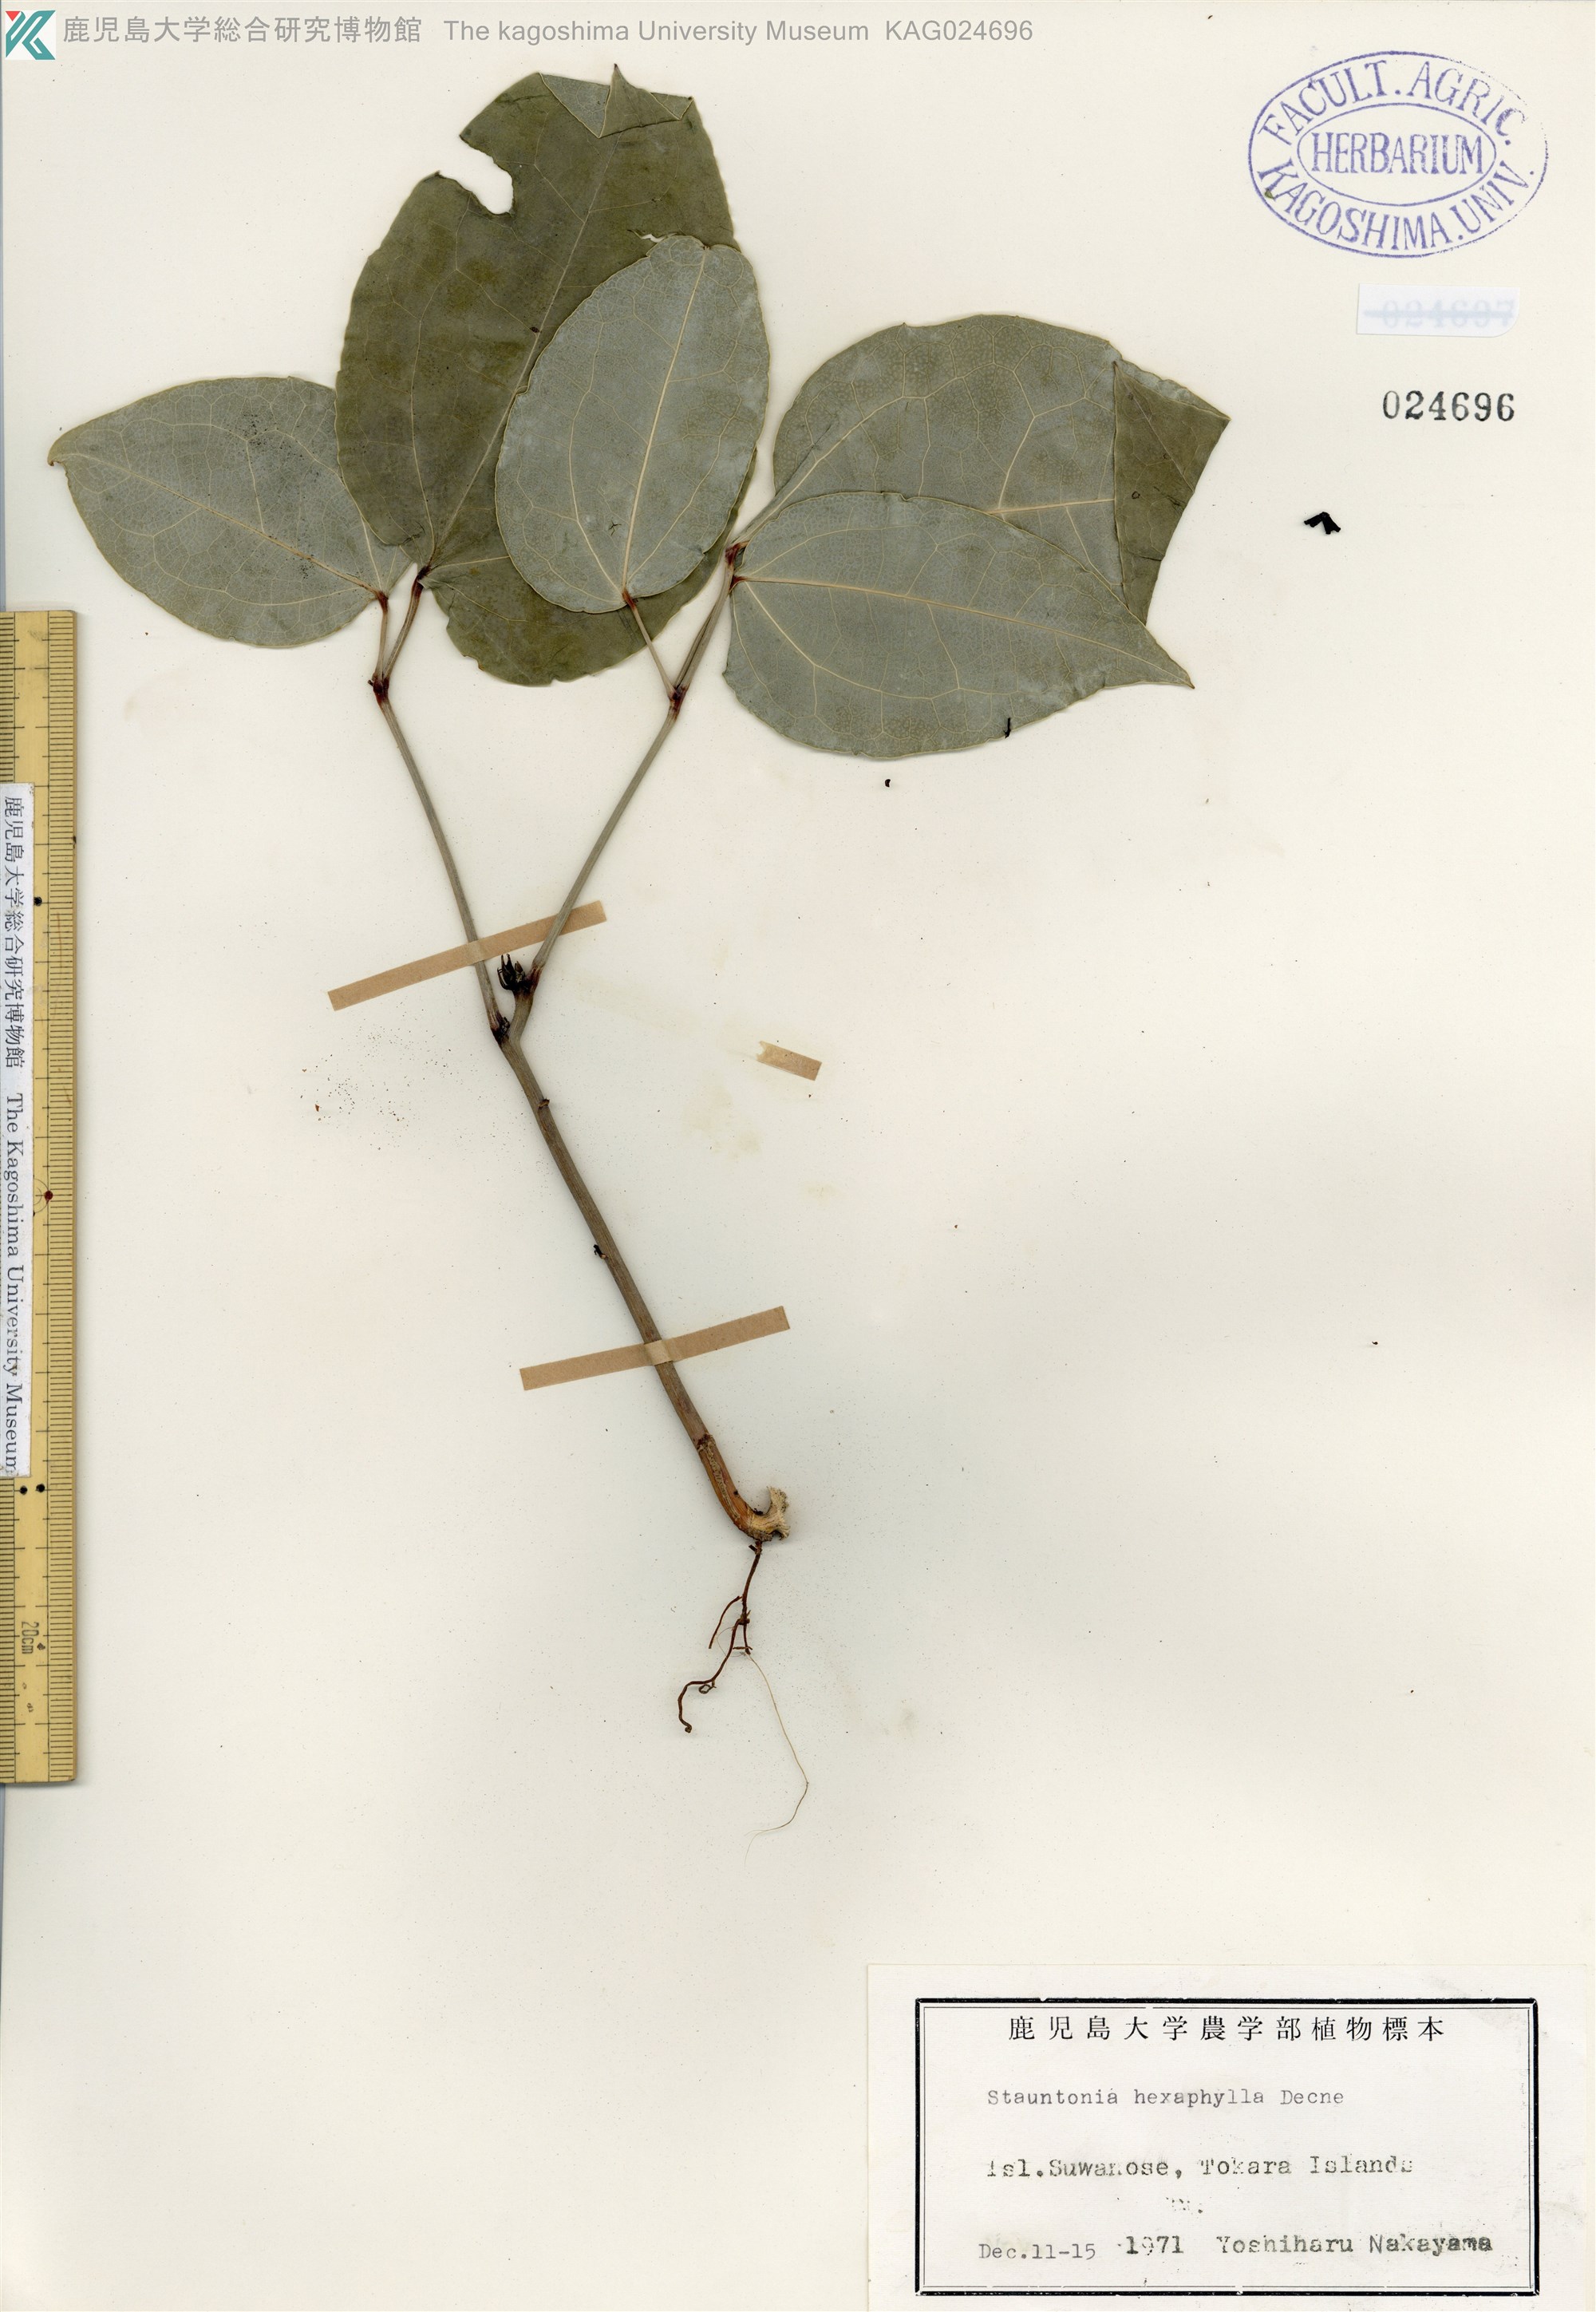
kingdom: Plantae
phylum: Tracheophyta
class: Magnoliopsida
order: Ranunculales
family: Lardizabalaceae
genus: Stauntonia
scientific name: Stauntonia hexaphylla
